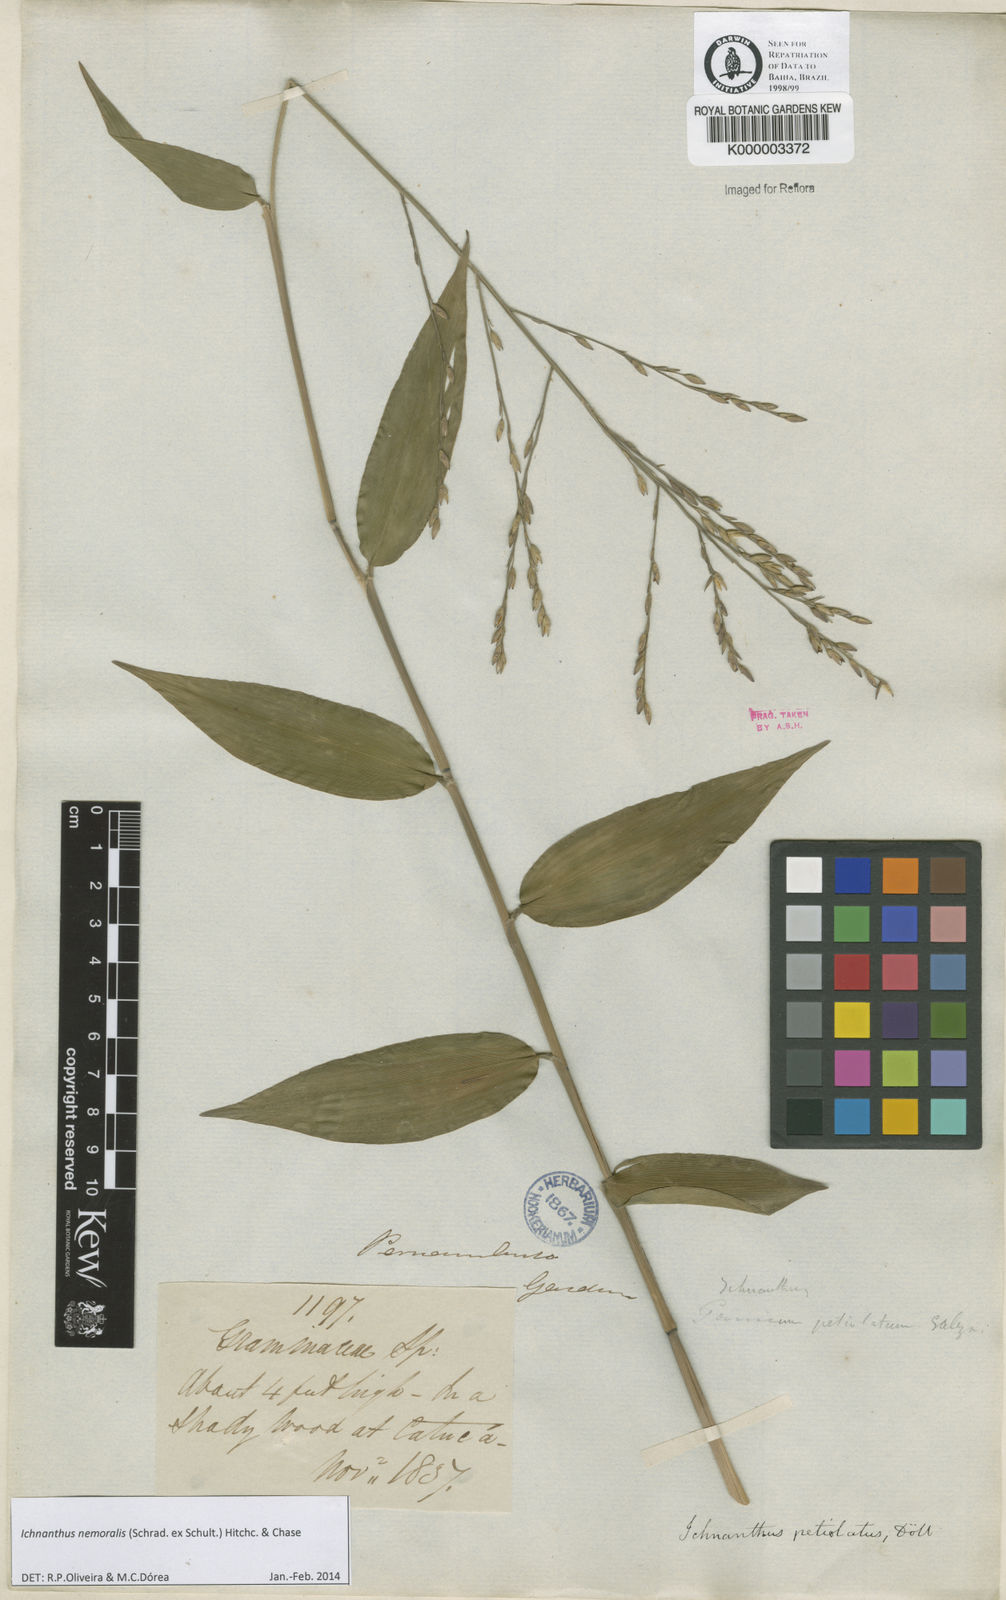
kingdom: Plantae
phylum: Tracheophyta
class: Liliopsida
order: Poales
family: Poaceae
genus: Ichnanthus
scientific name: Ichnanthus nemoralis
